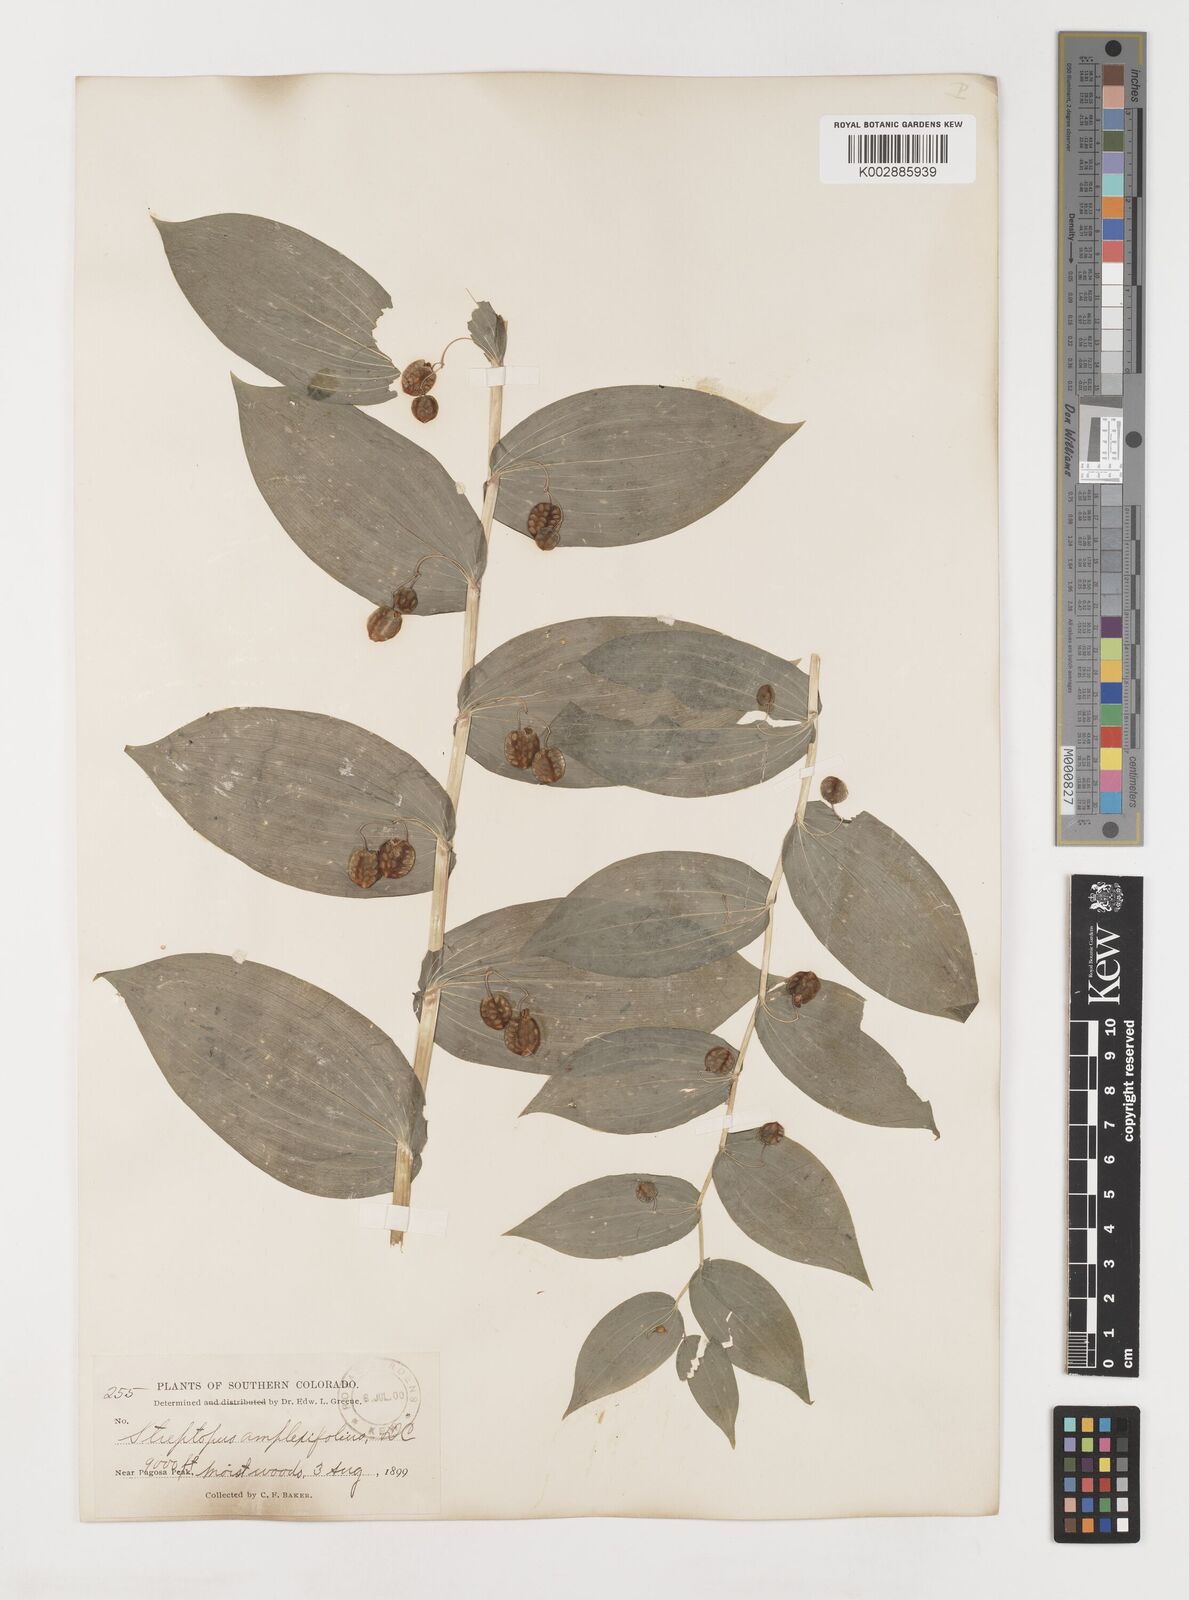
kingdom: Plantae
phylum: Tracheophyta
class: Liliopsida
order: Liliales
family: Liliaceae
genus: Streptopus
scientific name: Streptopus amplexifolius
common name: Clasp twisted stalk
